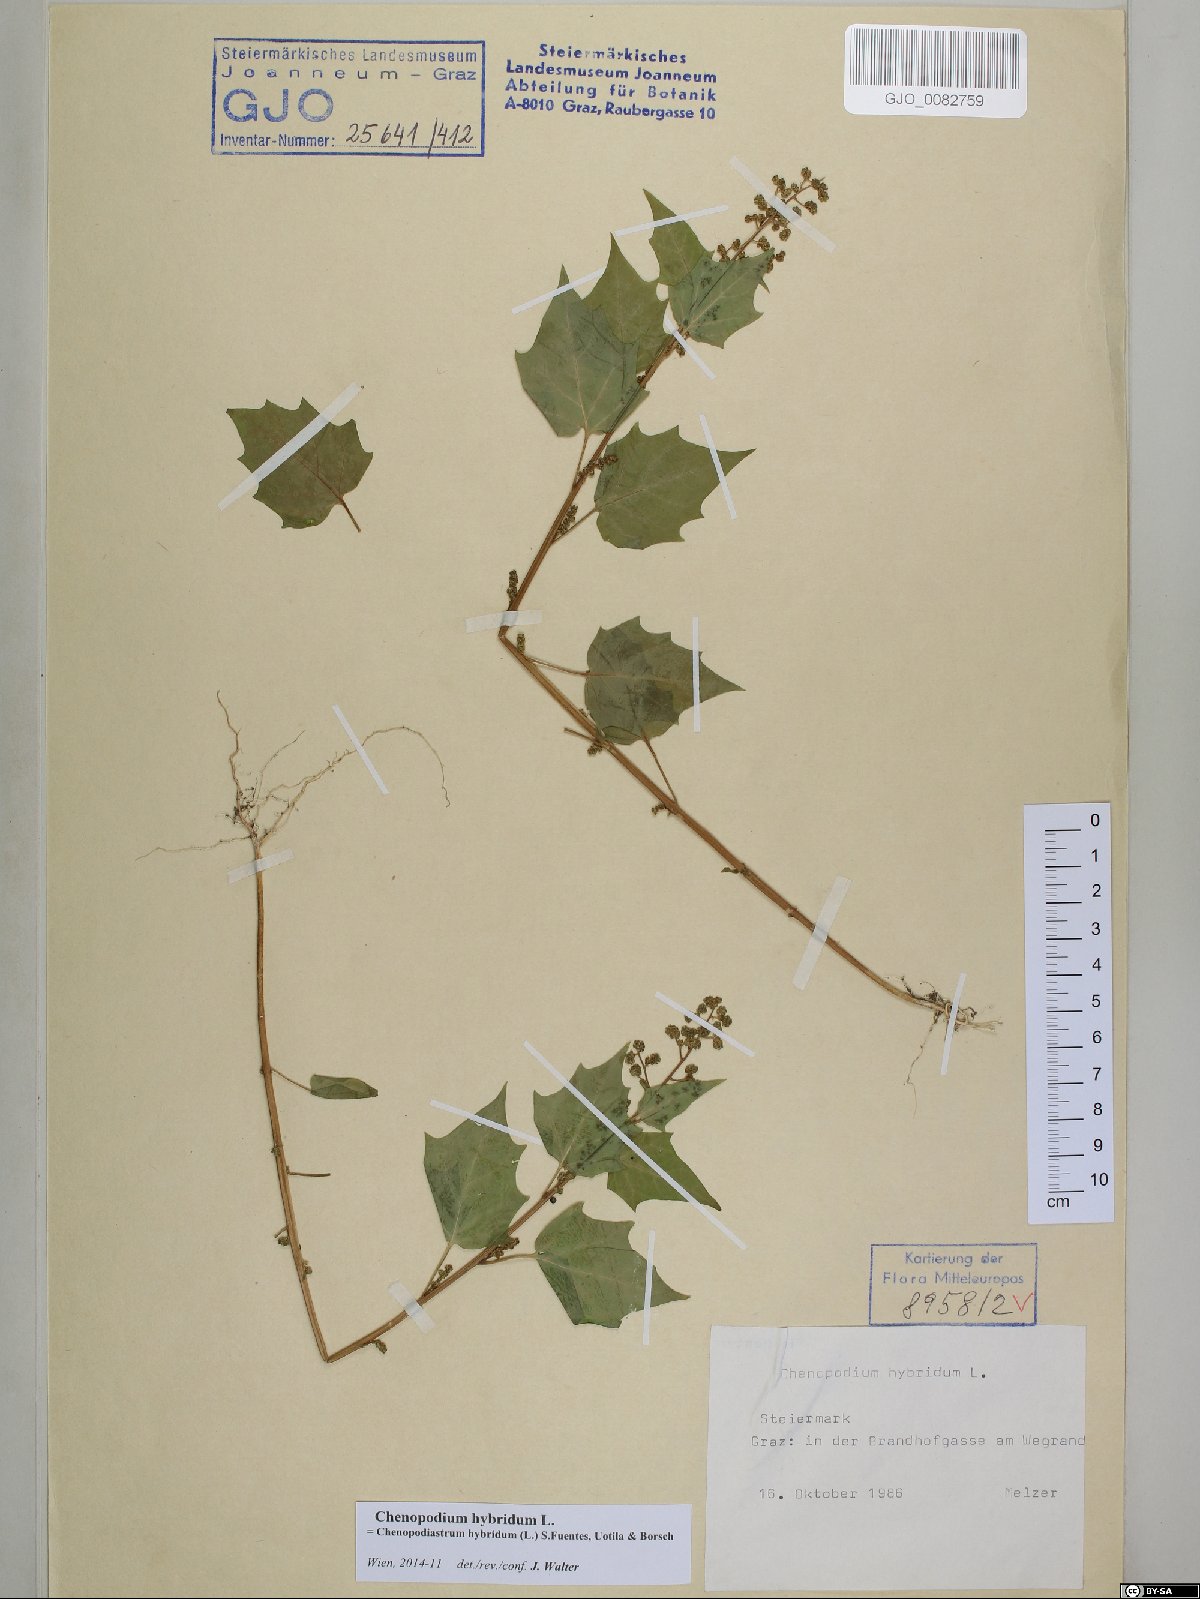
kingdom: Plantae
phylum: Tracheophyta
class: Magnoliopsida
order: Caryophyllales
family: Amaranthaceae
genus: Chenopodiastrum
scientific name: Chenopodiastrum hybridum
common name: Mapleleaf goosefoot
